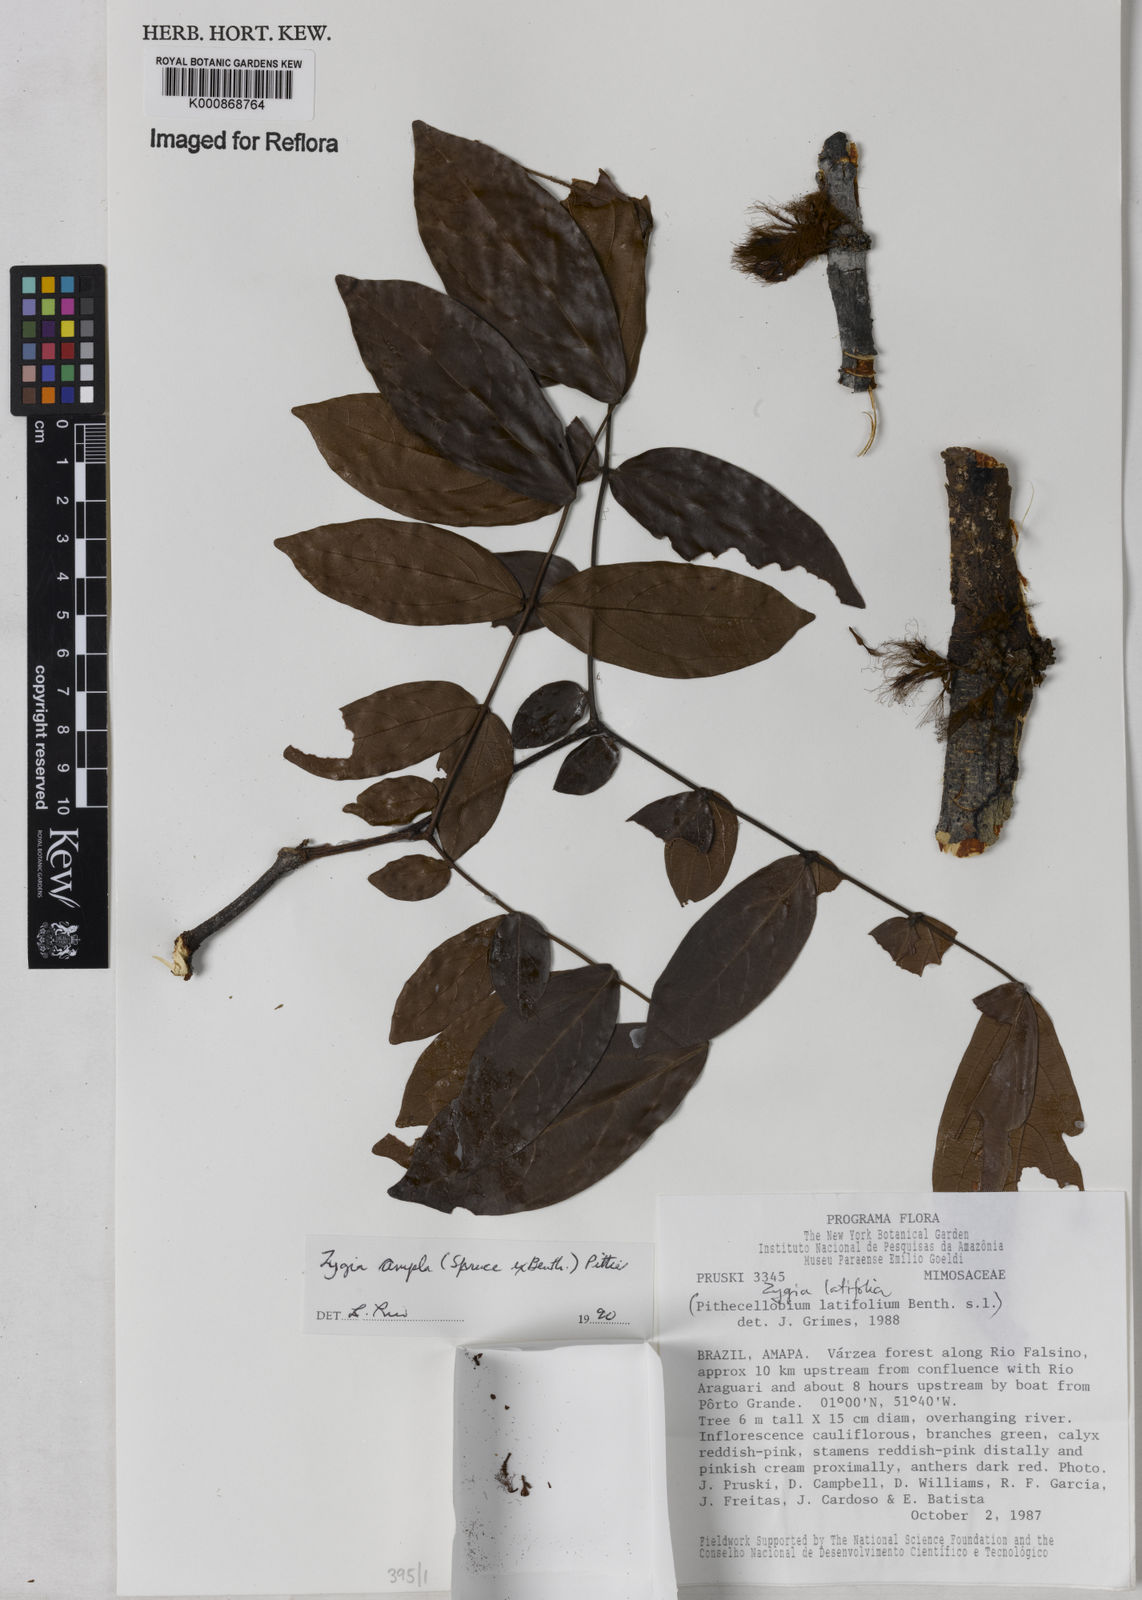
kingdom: Plantae
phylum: Tracheophyta
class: Magnoliopsida
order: Fabales
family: Fabaceae
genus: Zygia
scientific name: Zygia ampla
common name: Jarendeua de sapo
